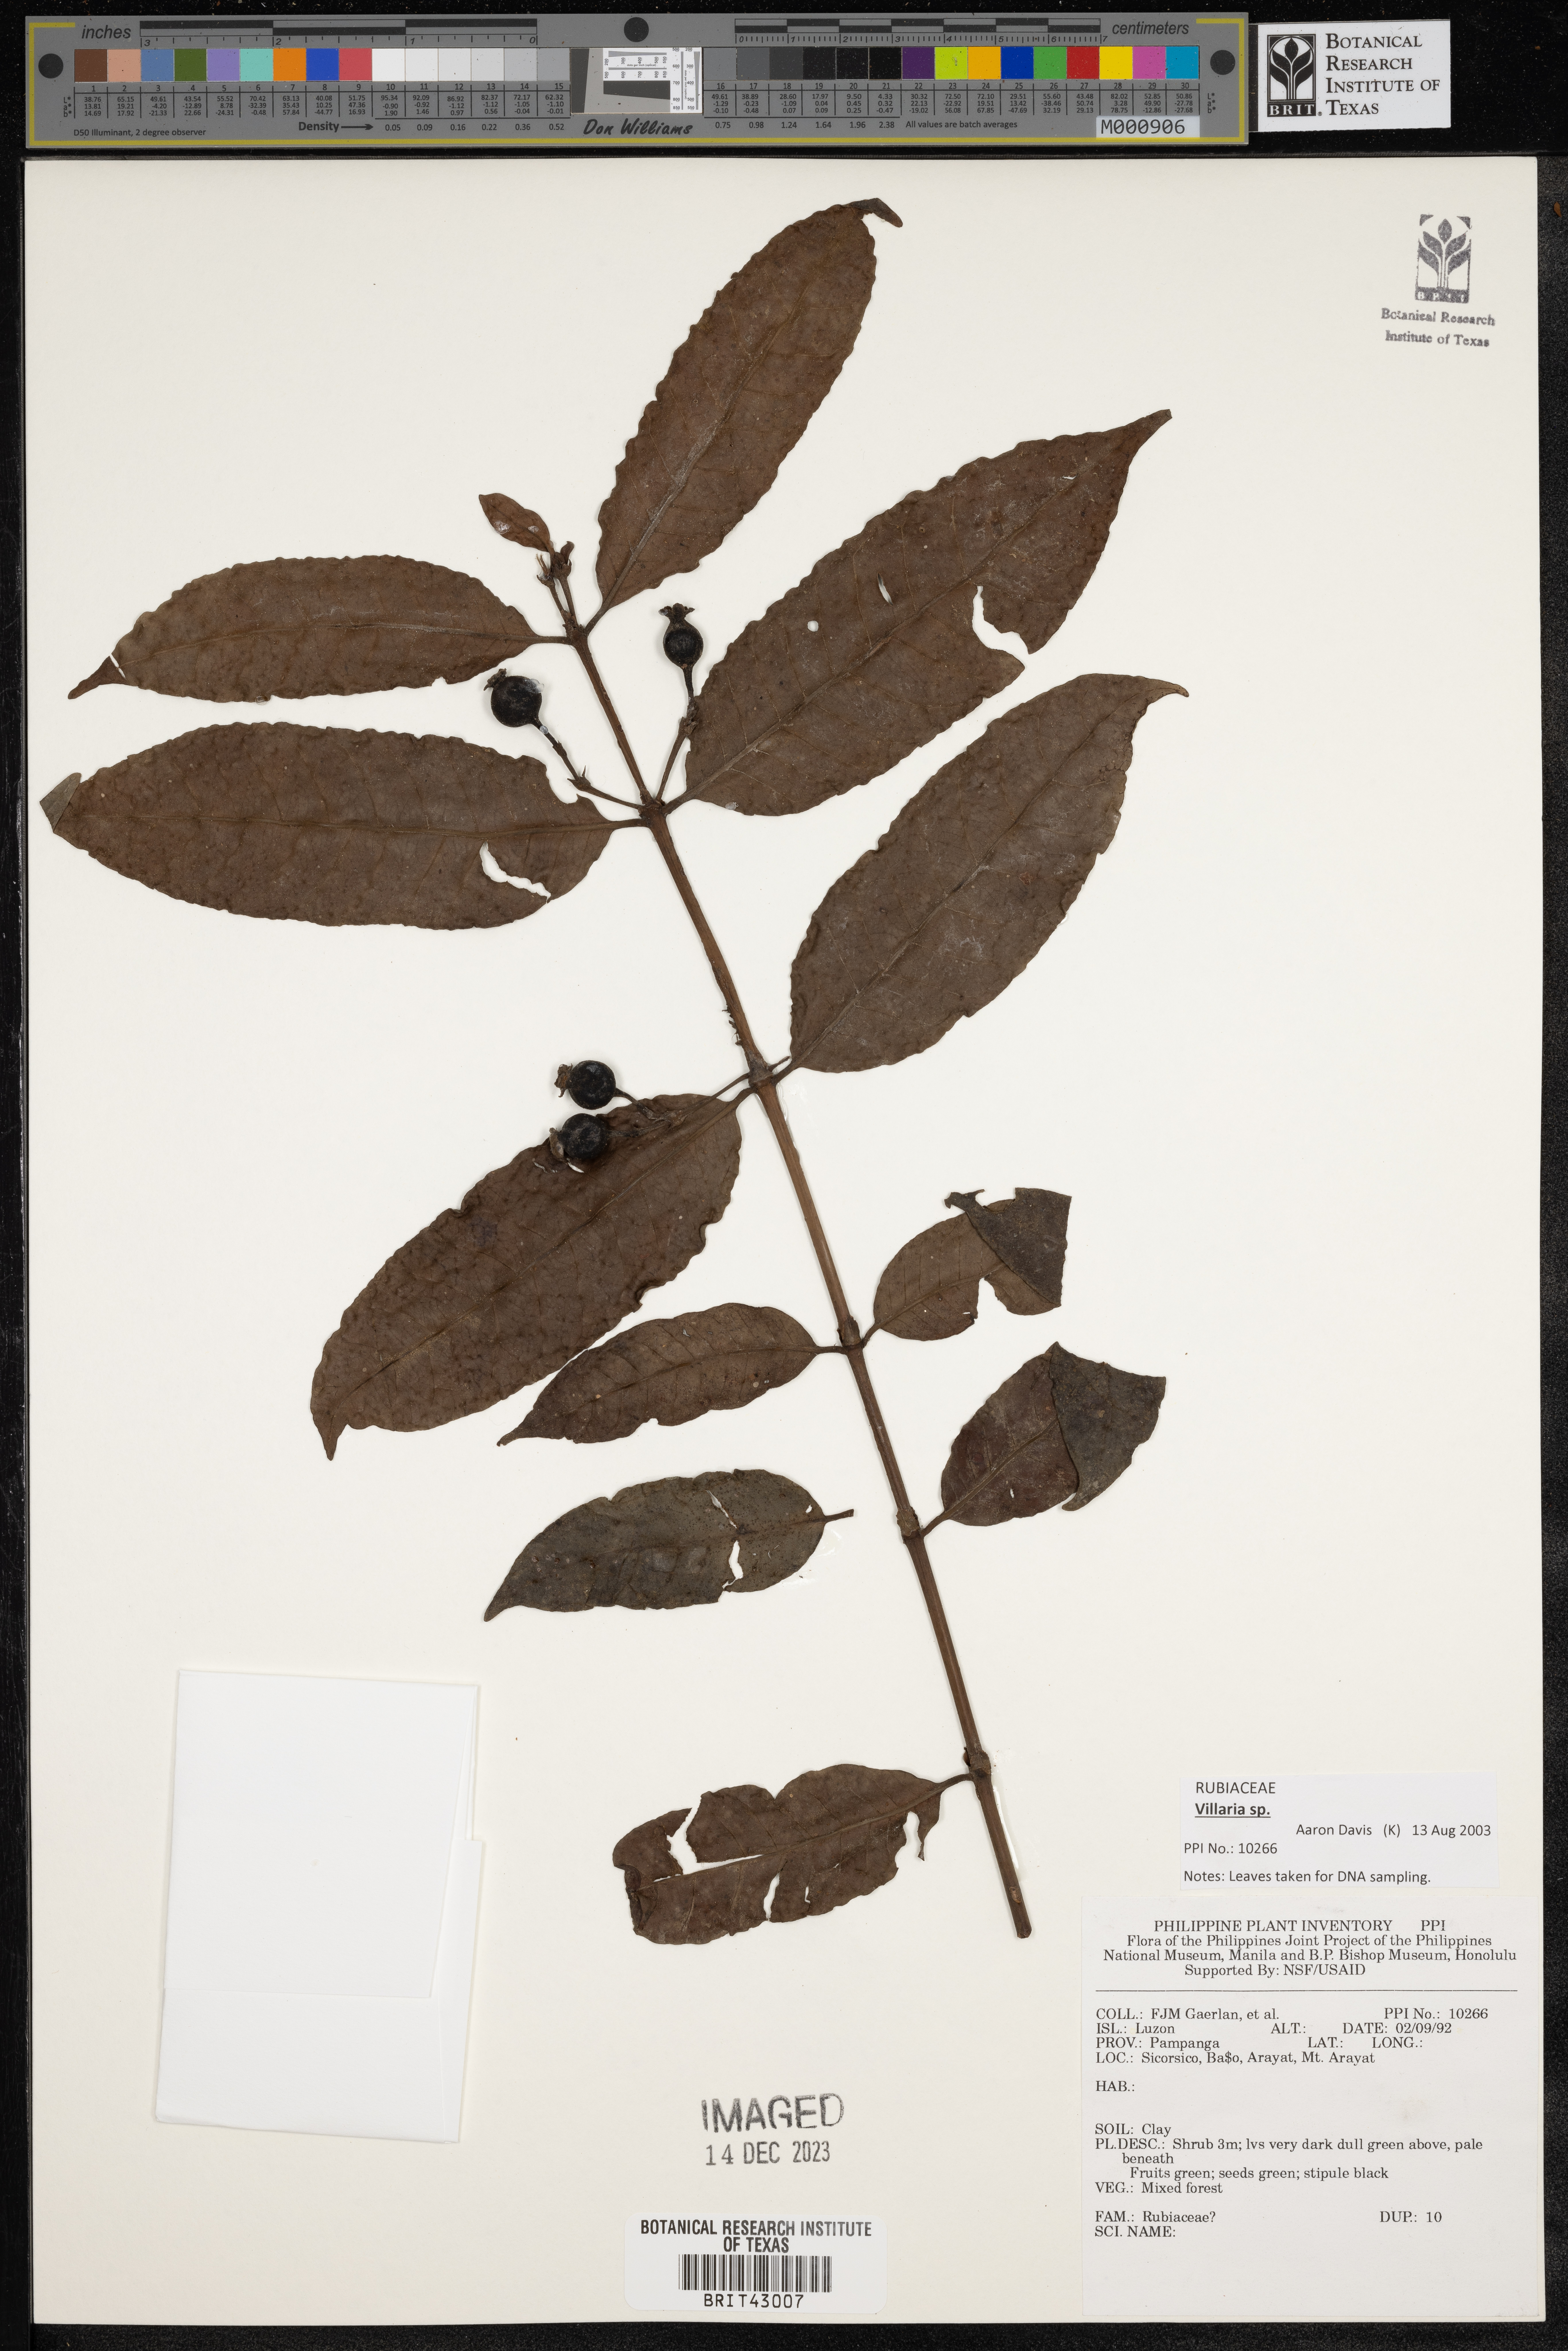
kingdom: Plantae
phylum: Tracheophyta
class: Magnoliopsida
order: Gentianales
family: Rubiaceae
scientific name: Rubiaceae
